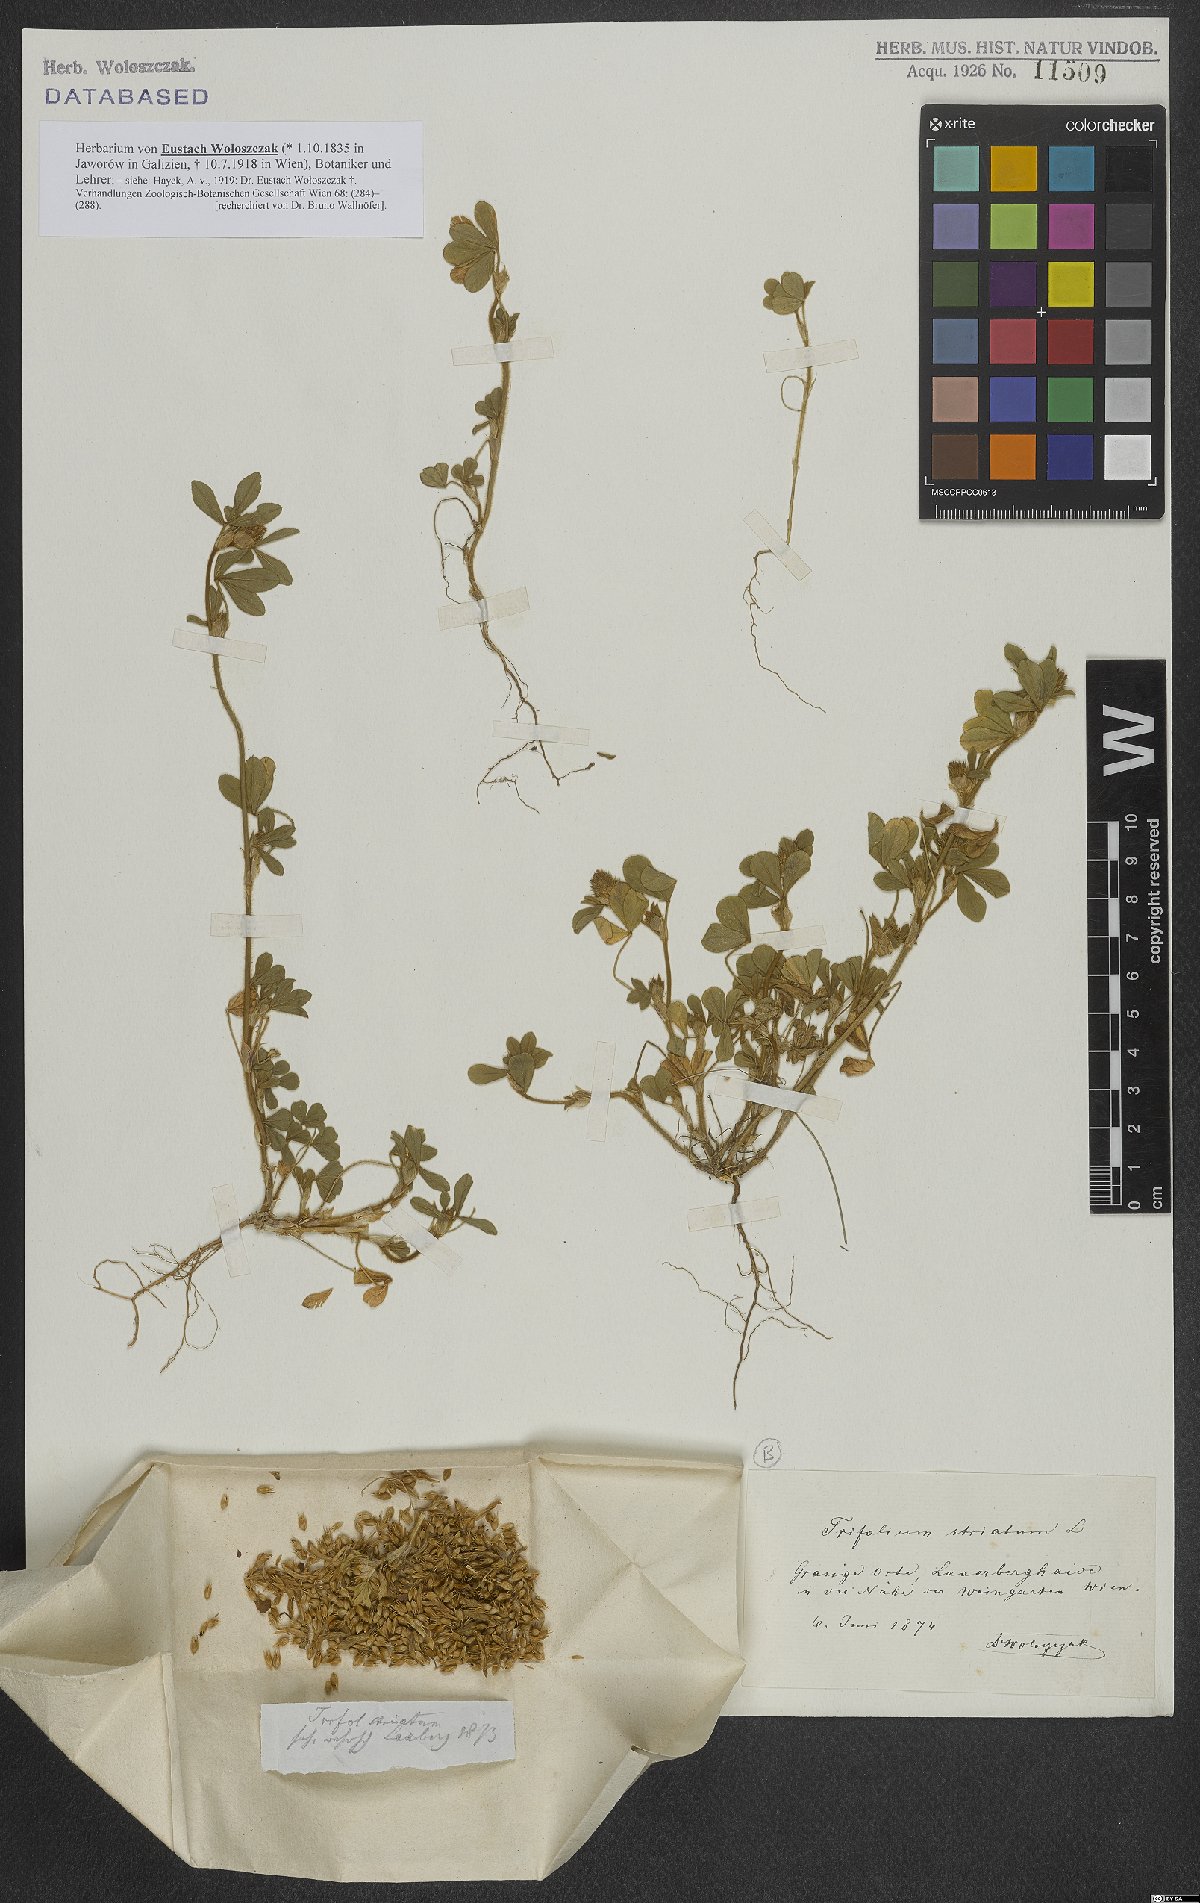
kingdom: Plantae
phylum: Tracheophyta
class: Magnoliopsida
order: Fabales
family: Fabaceae
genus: Trifolium
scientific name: Trifolium striatum
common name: Knotted clover
